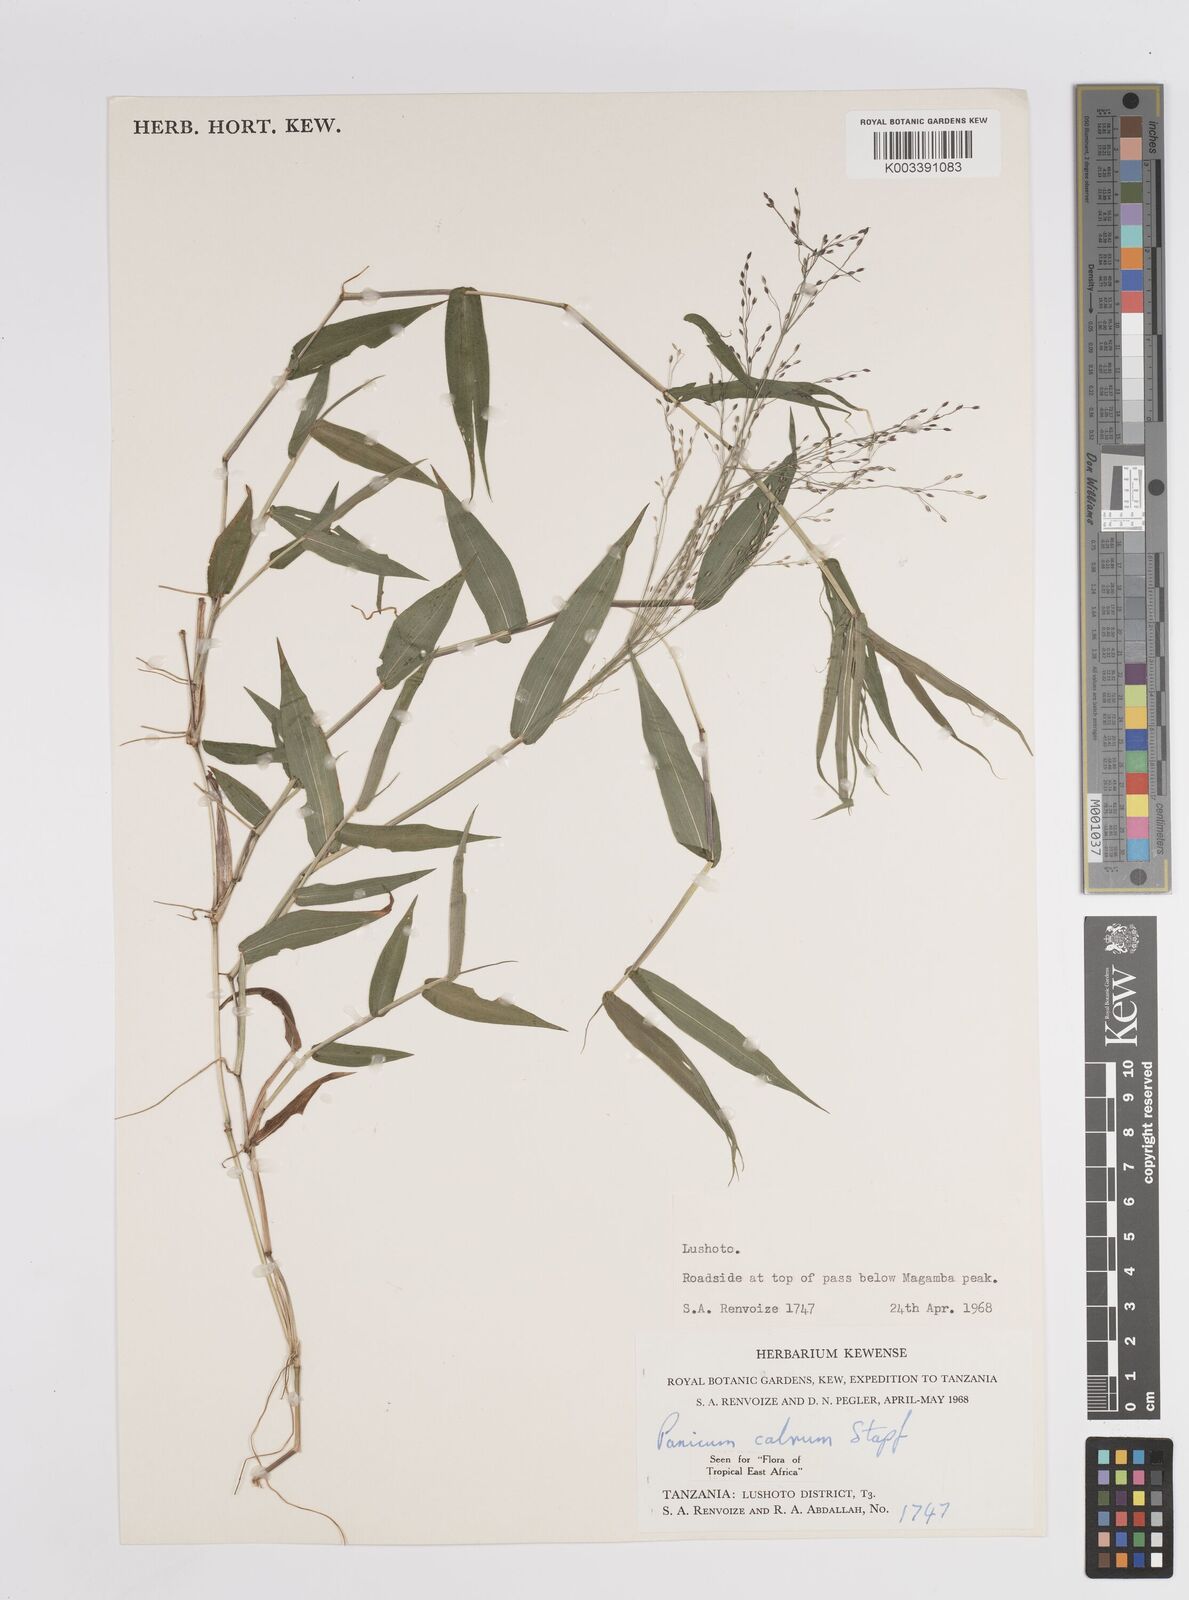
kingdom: Plantae
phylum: Tracheophyta
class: Liliopsida
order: Poales
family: Poaceae
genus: Panicum
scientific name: Panicum calvum
